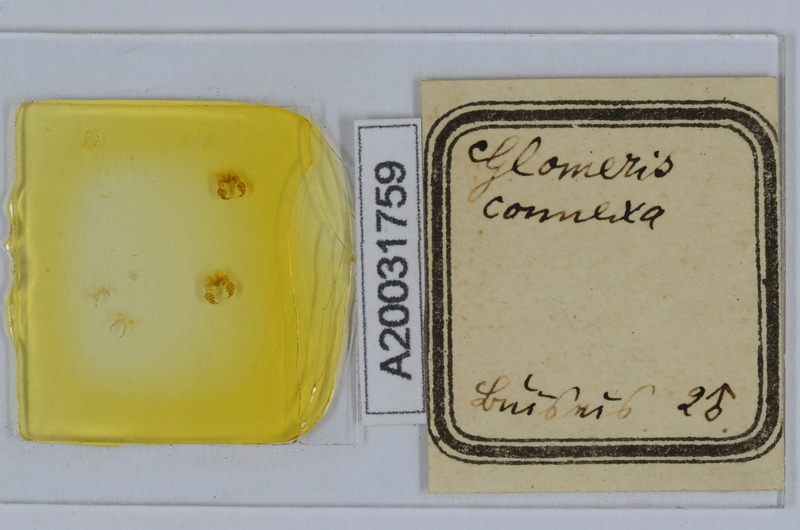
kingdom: Animalia
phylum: Arthropoda
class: Diplopoda
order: Glomerida
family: Glomeridae
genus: Glomeris
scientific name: Glomeris connexa
